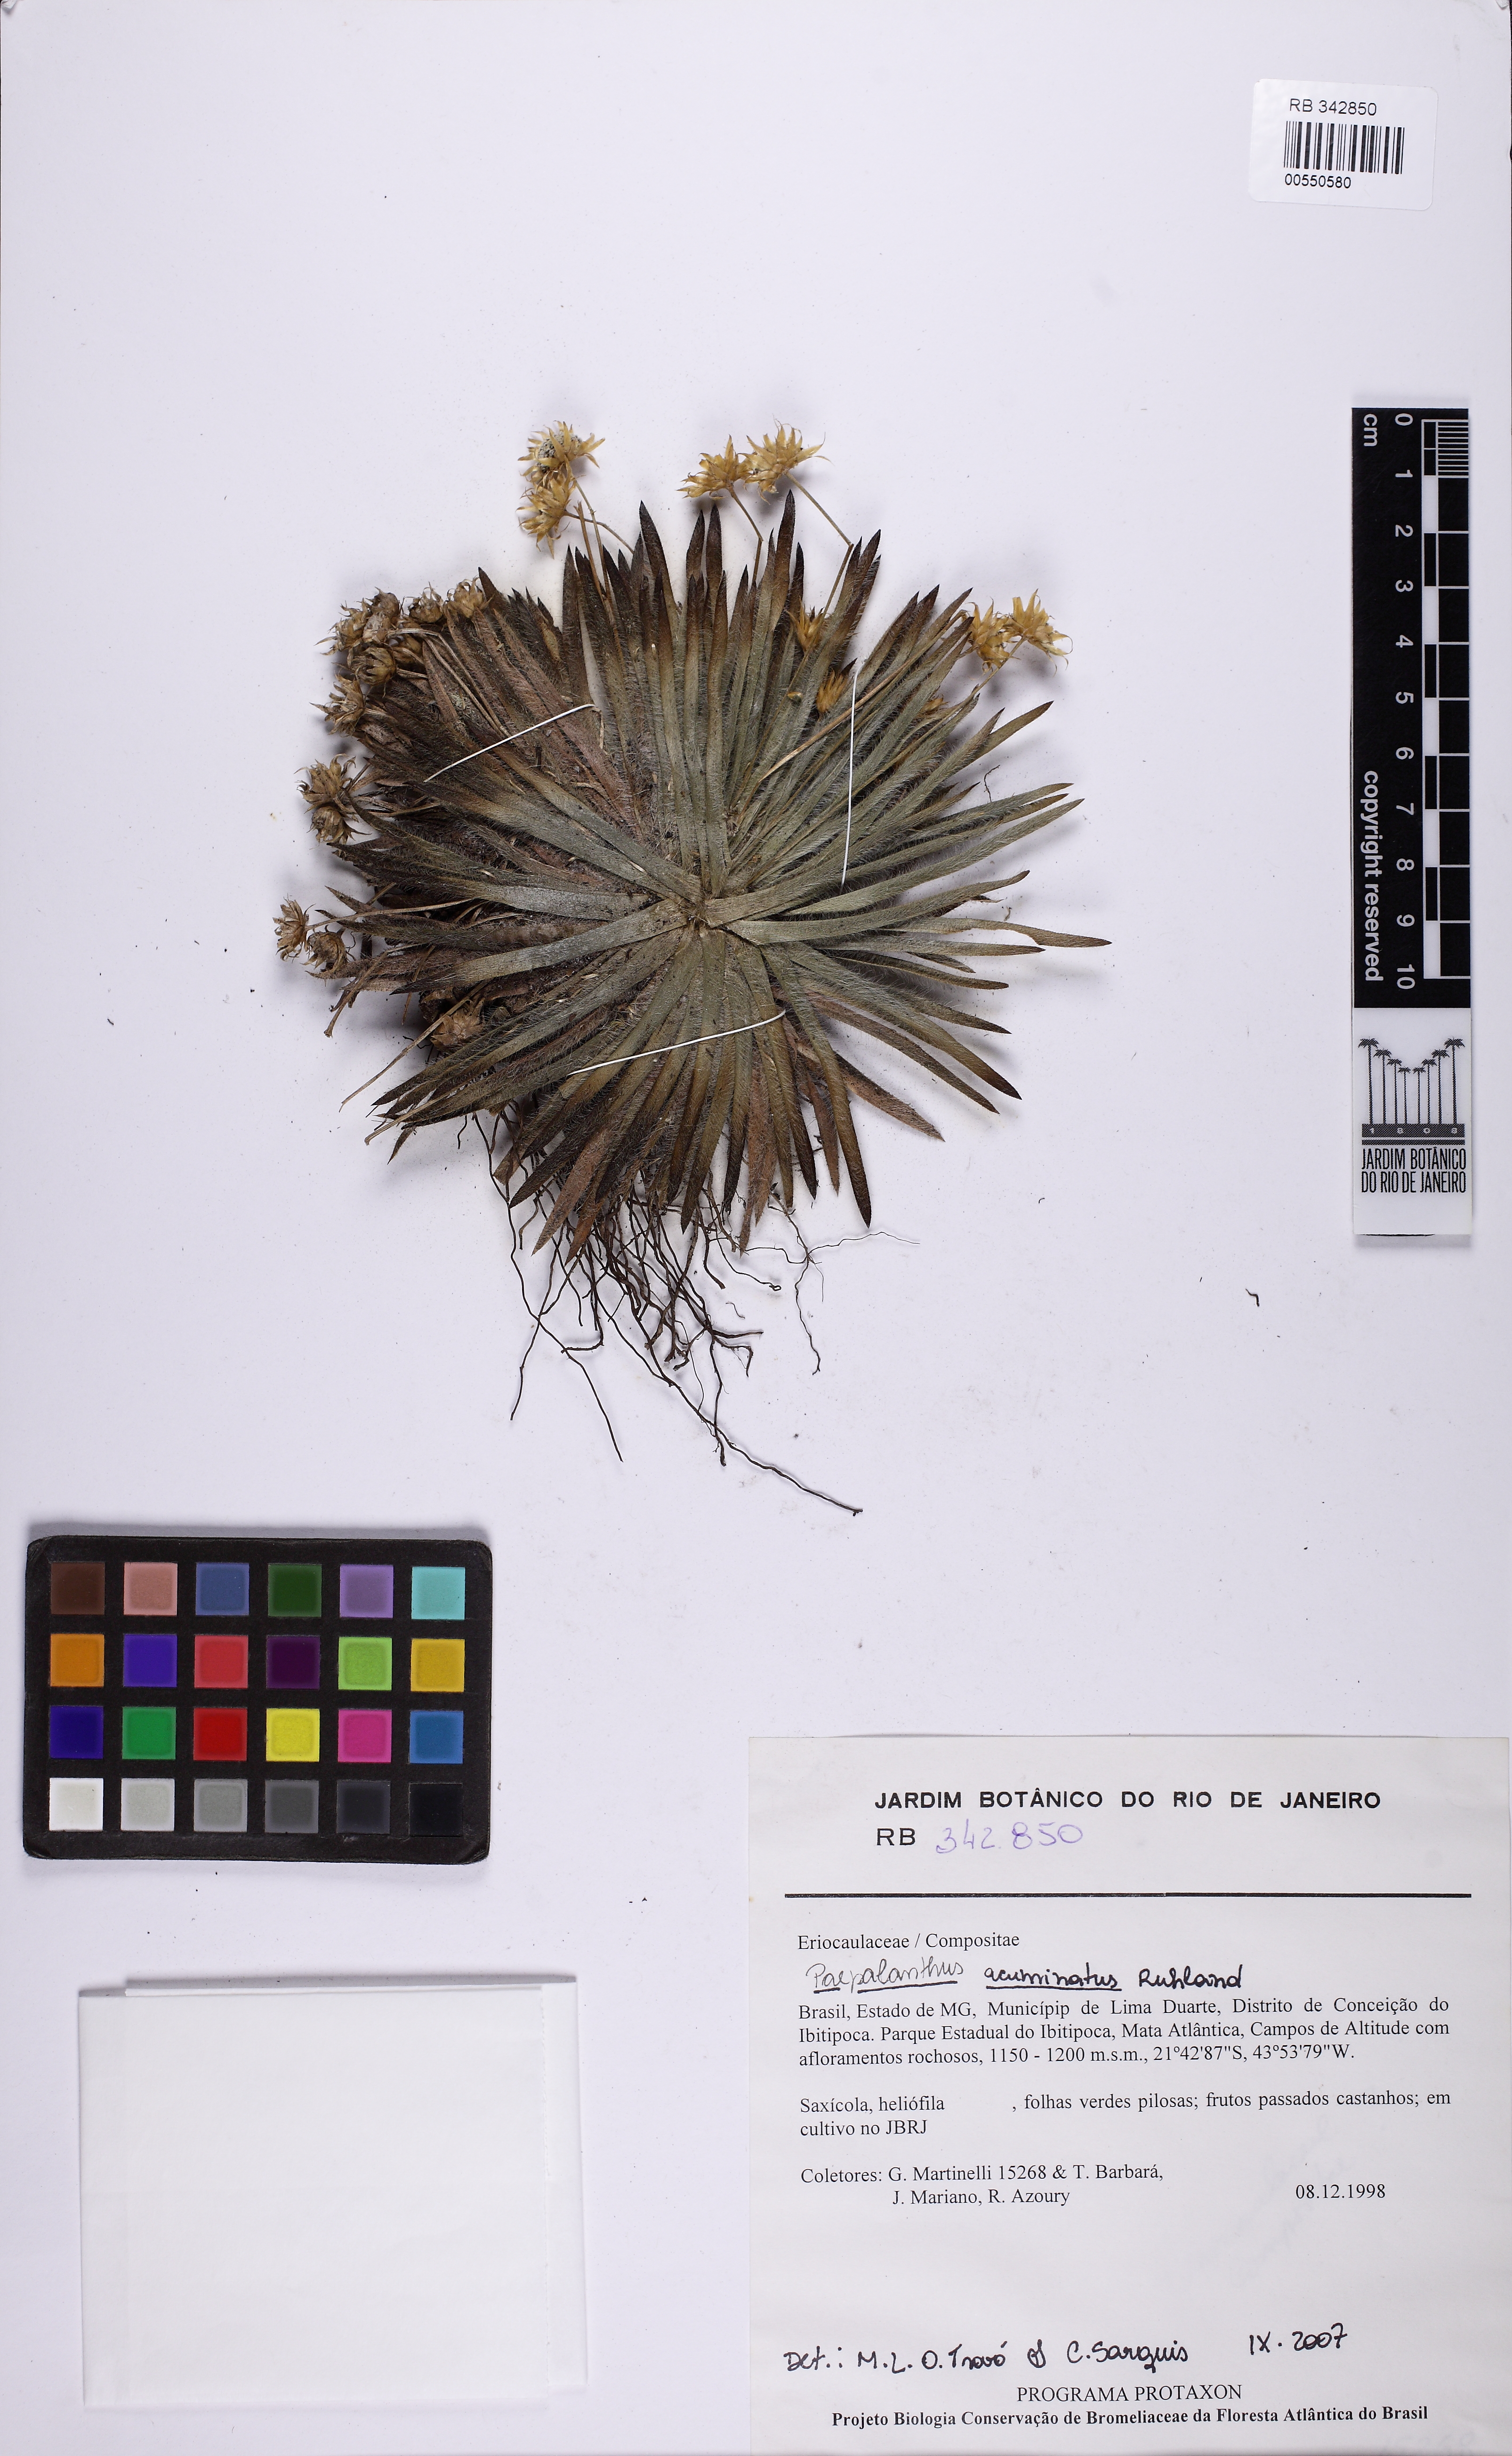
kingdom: Plantae
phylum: Tracheophyta
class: Liliopsida
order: Poales
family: Eriocaulaceae
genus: Paepalanthus
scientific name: Paepalanthus acuminatus
